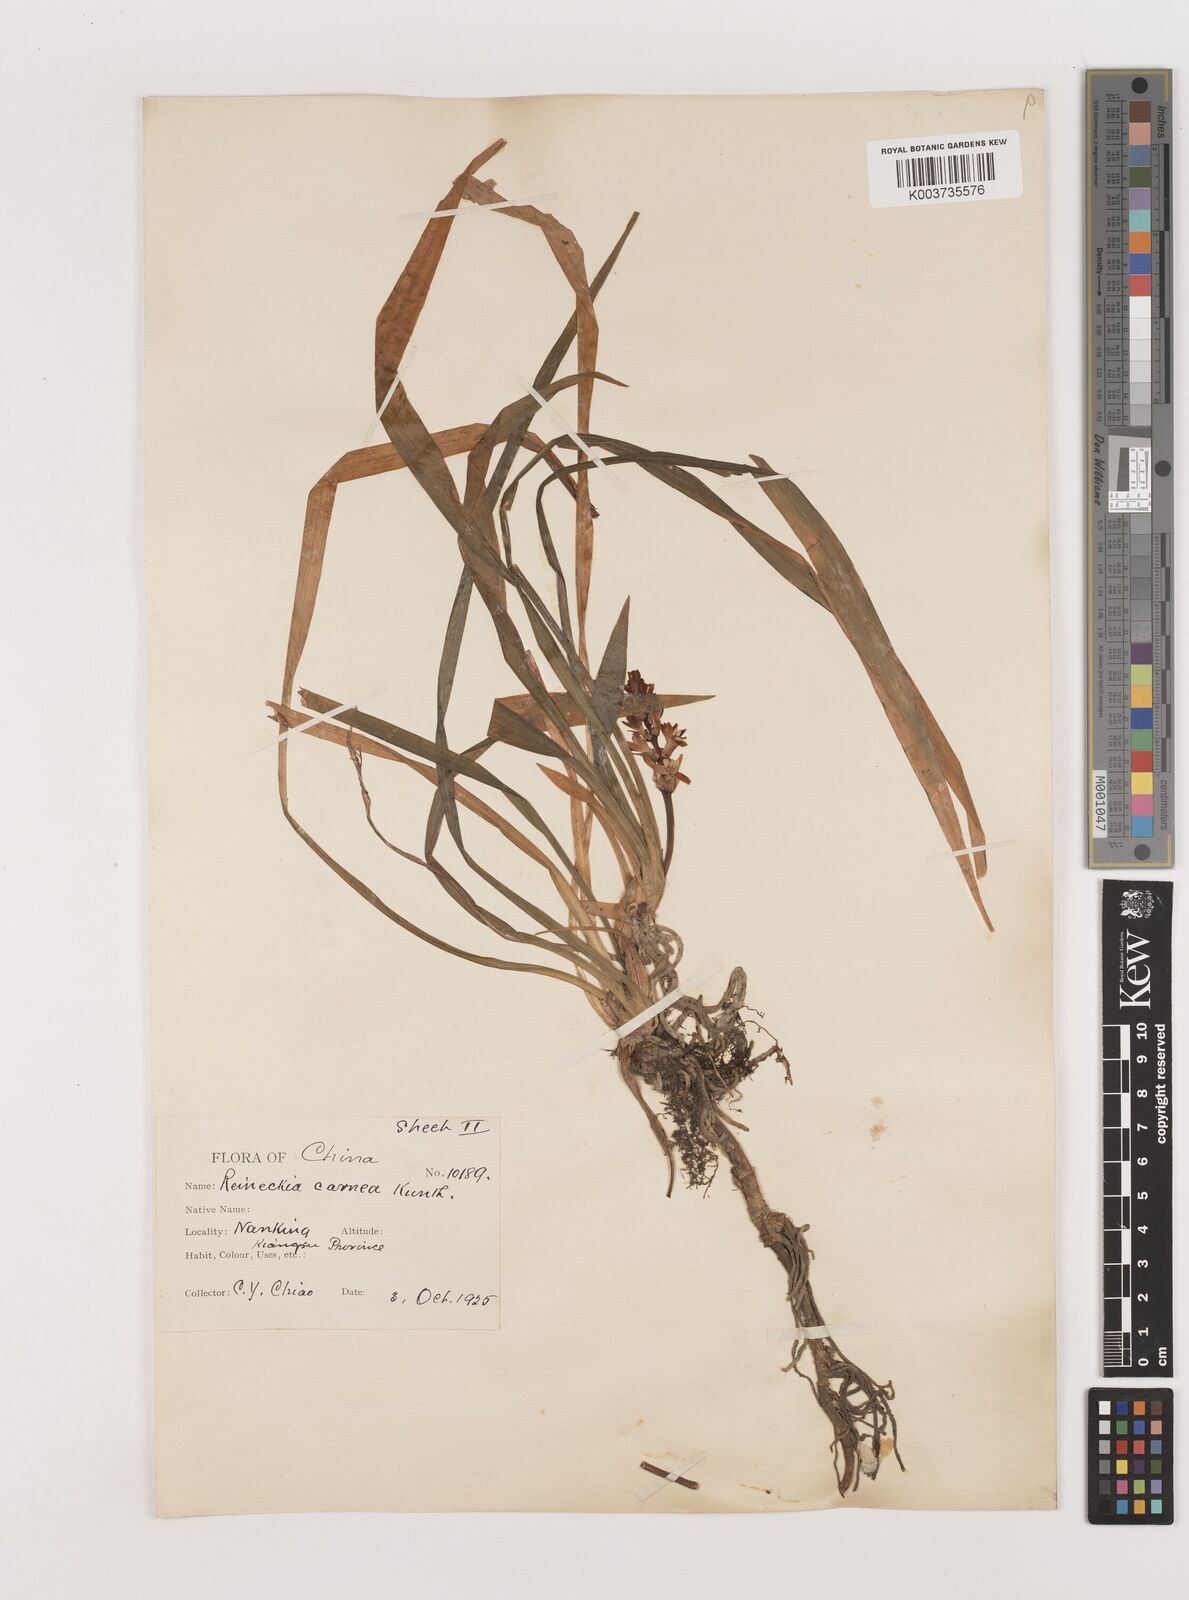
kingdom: Plantae
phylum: Tracheophyta
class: Liliopsida
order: Asparagales
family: Asparagaceae
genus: Reineckea
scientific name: Reineckea carnea
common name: Reineckea
